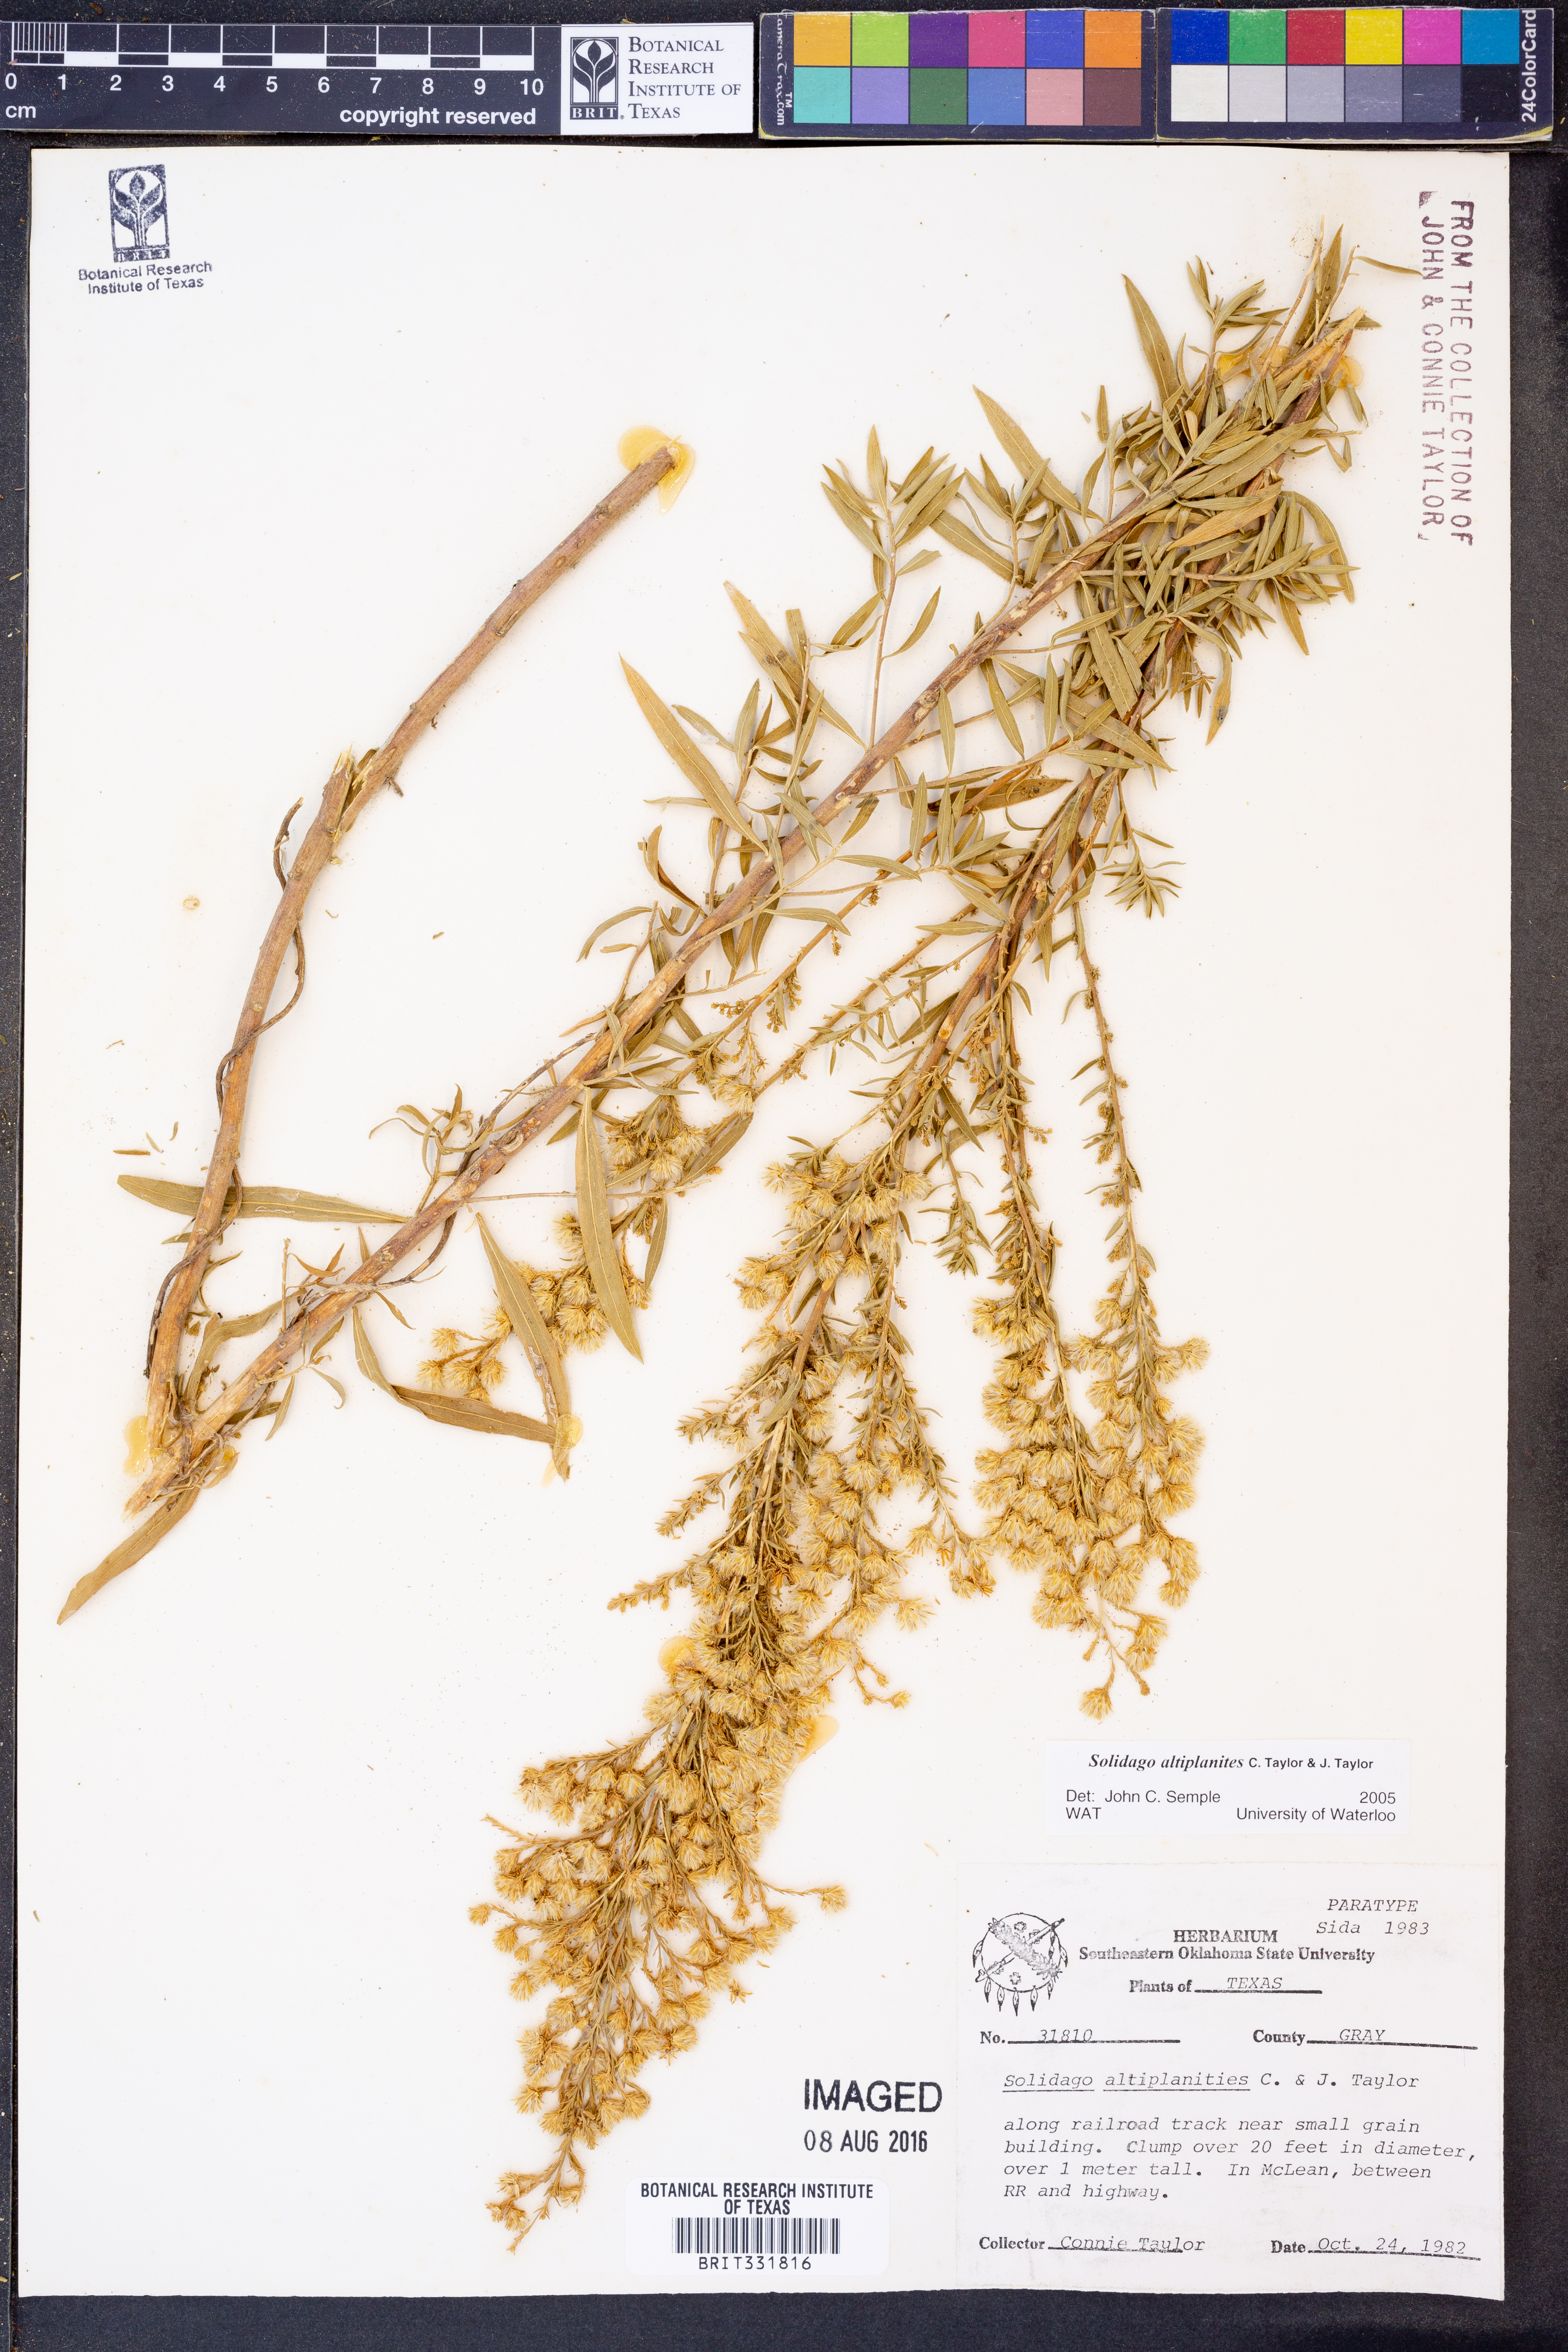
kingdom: Plantae
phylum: Tracheophyta
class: Magnoliopsida
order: Asterales
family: Asteraceae
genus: Solidago
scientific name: Solidago altiplanities
